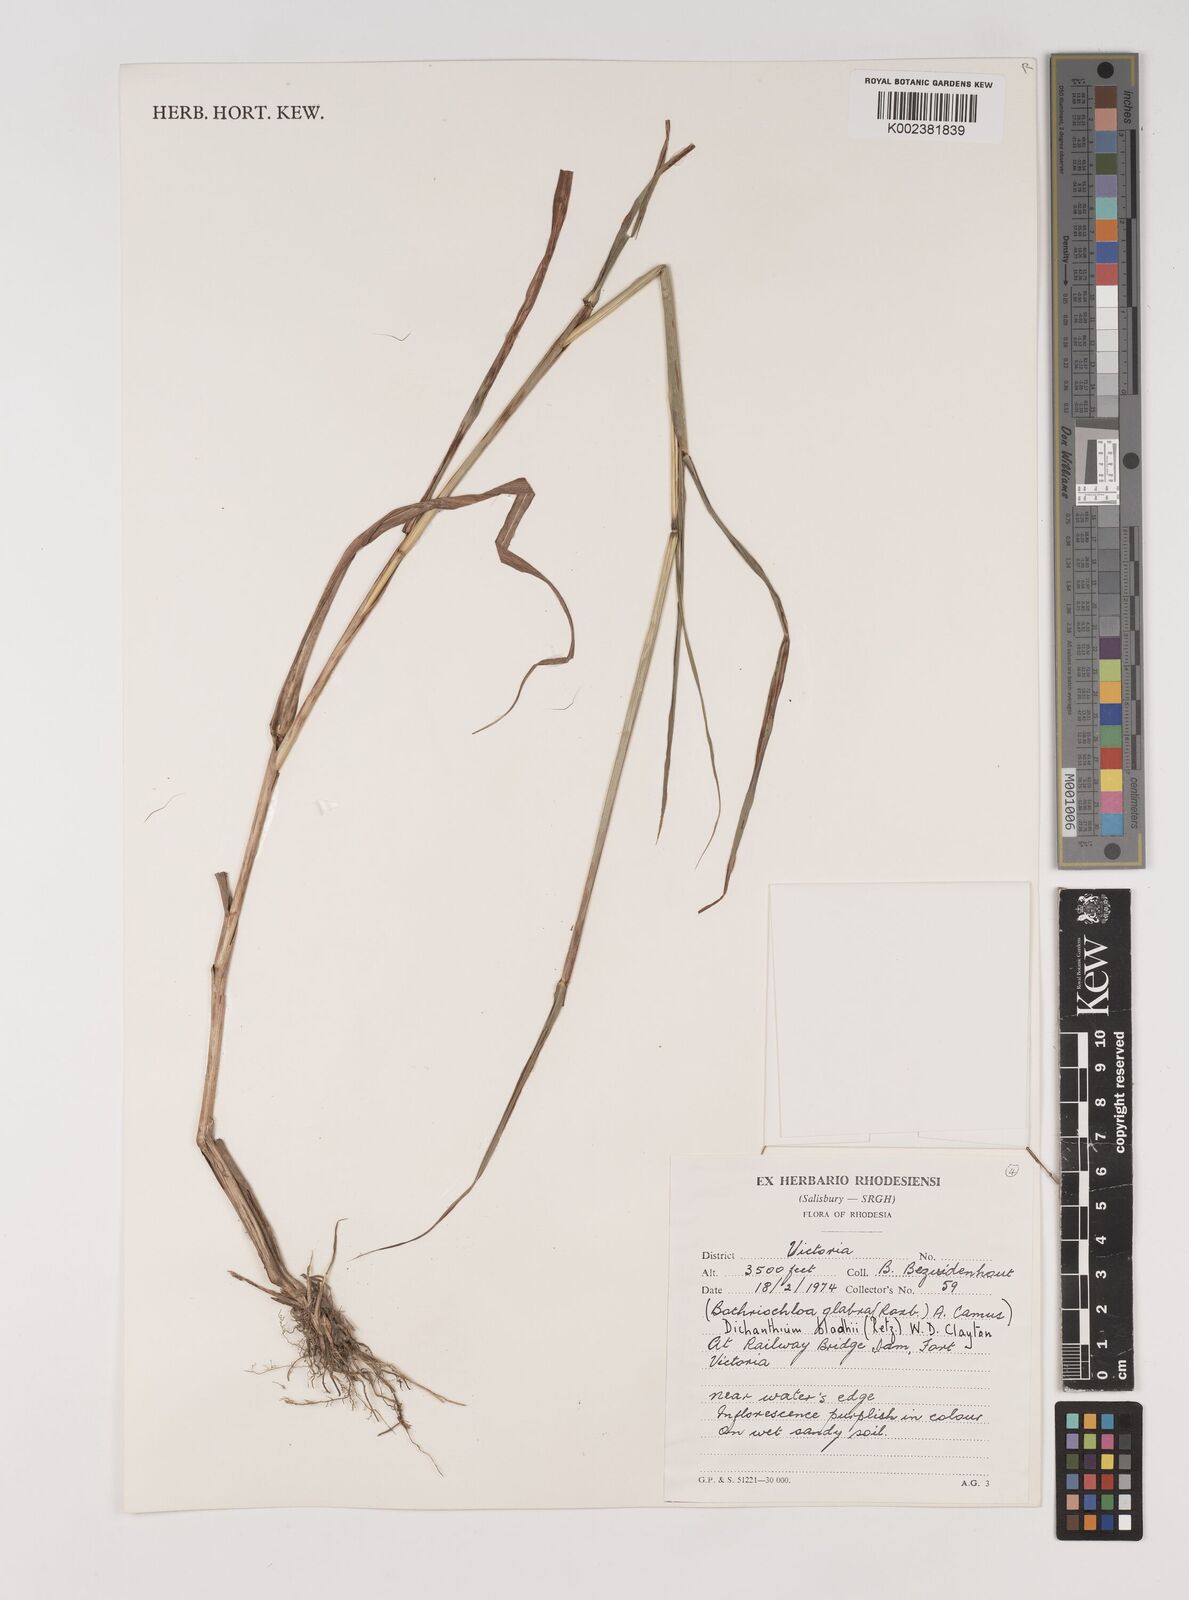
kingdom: Plantae
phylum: Tracheophyta
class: Liliopsida
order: Poales
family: Poaceae
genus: Bothriochloa
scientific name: Bothriochloa bladhii
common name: Caucasian bluestem
